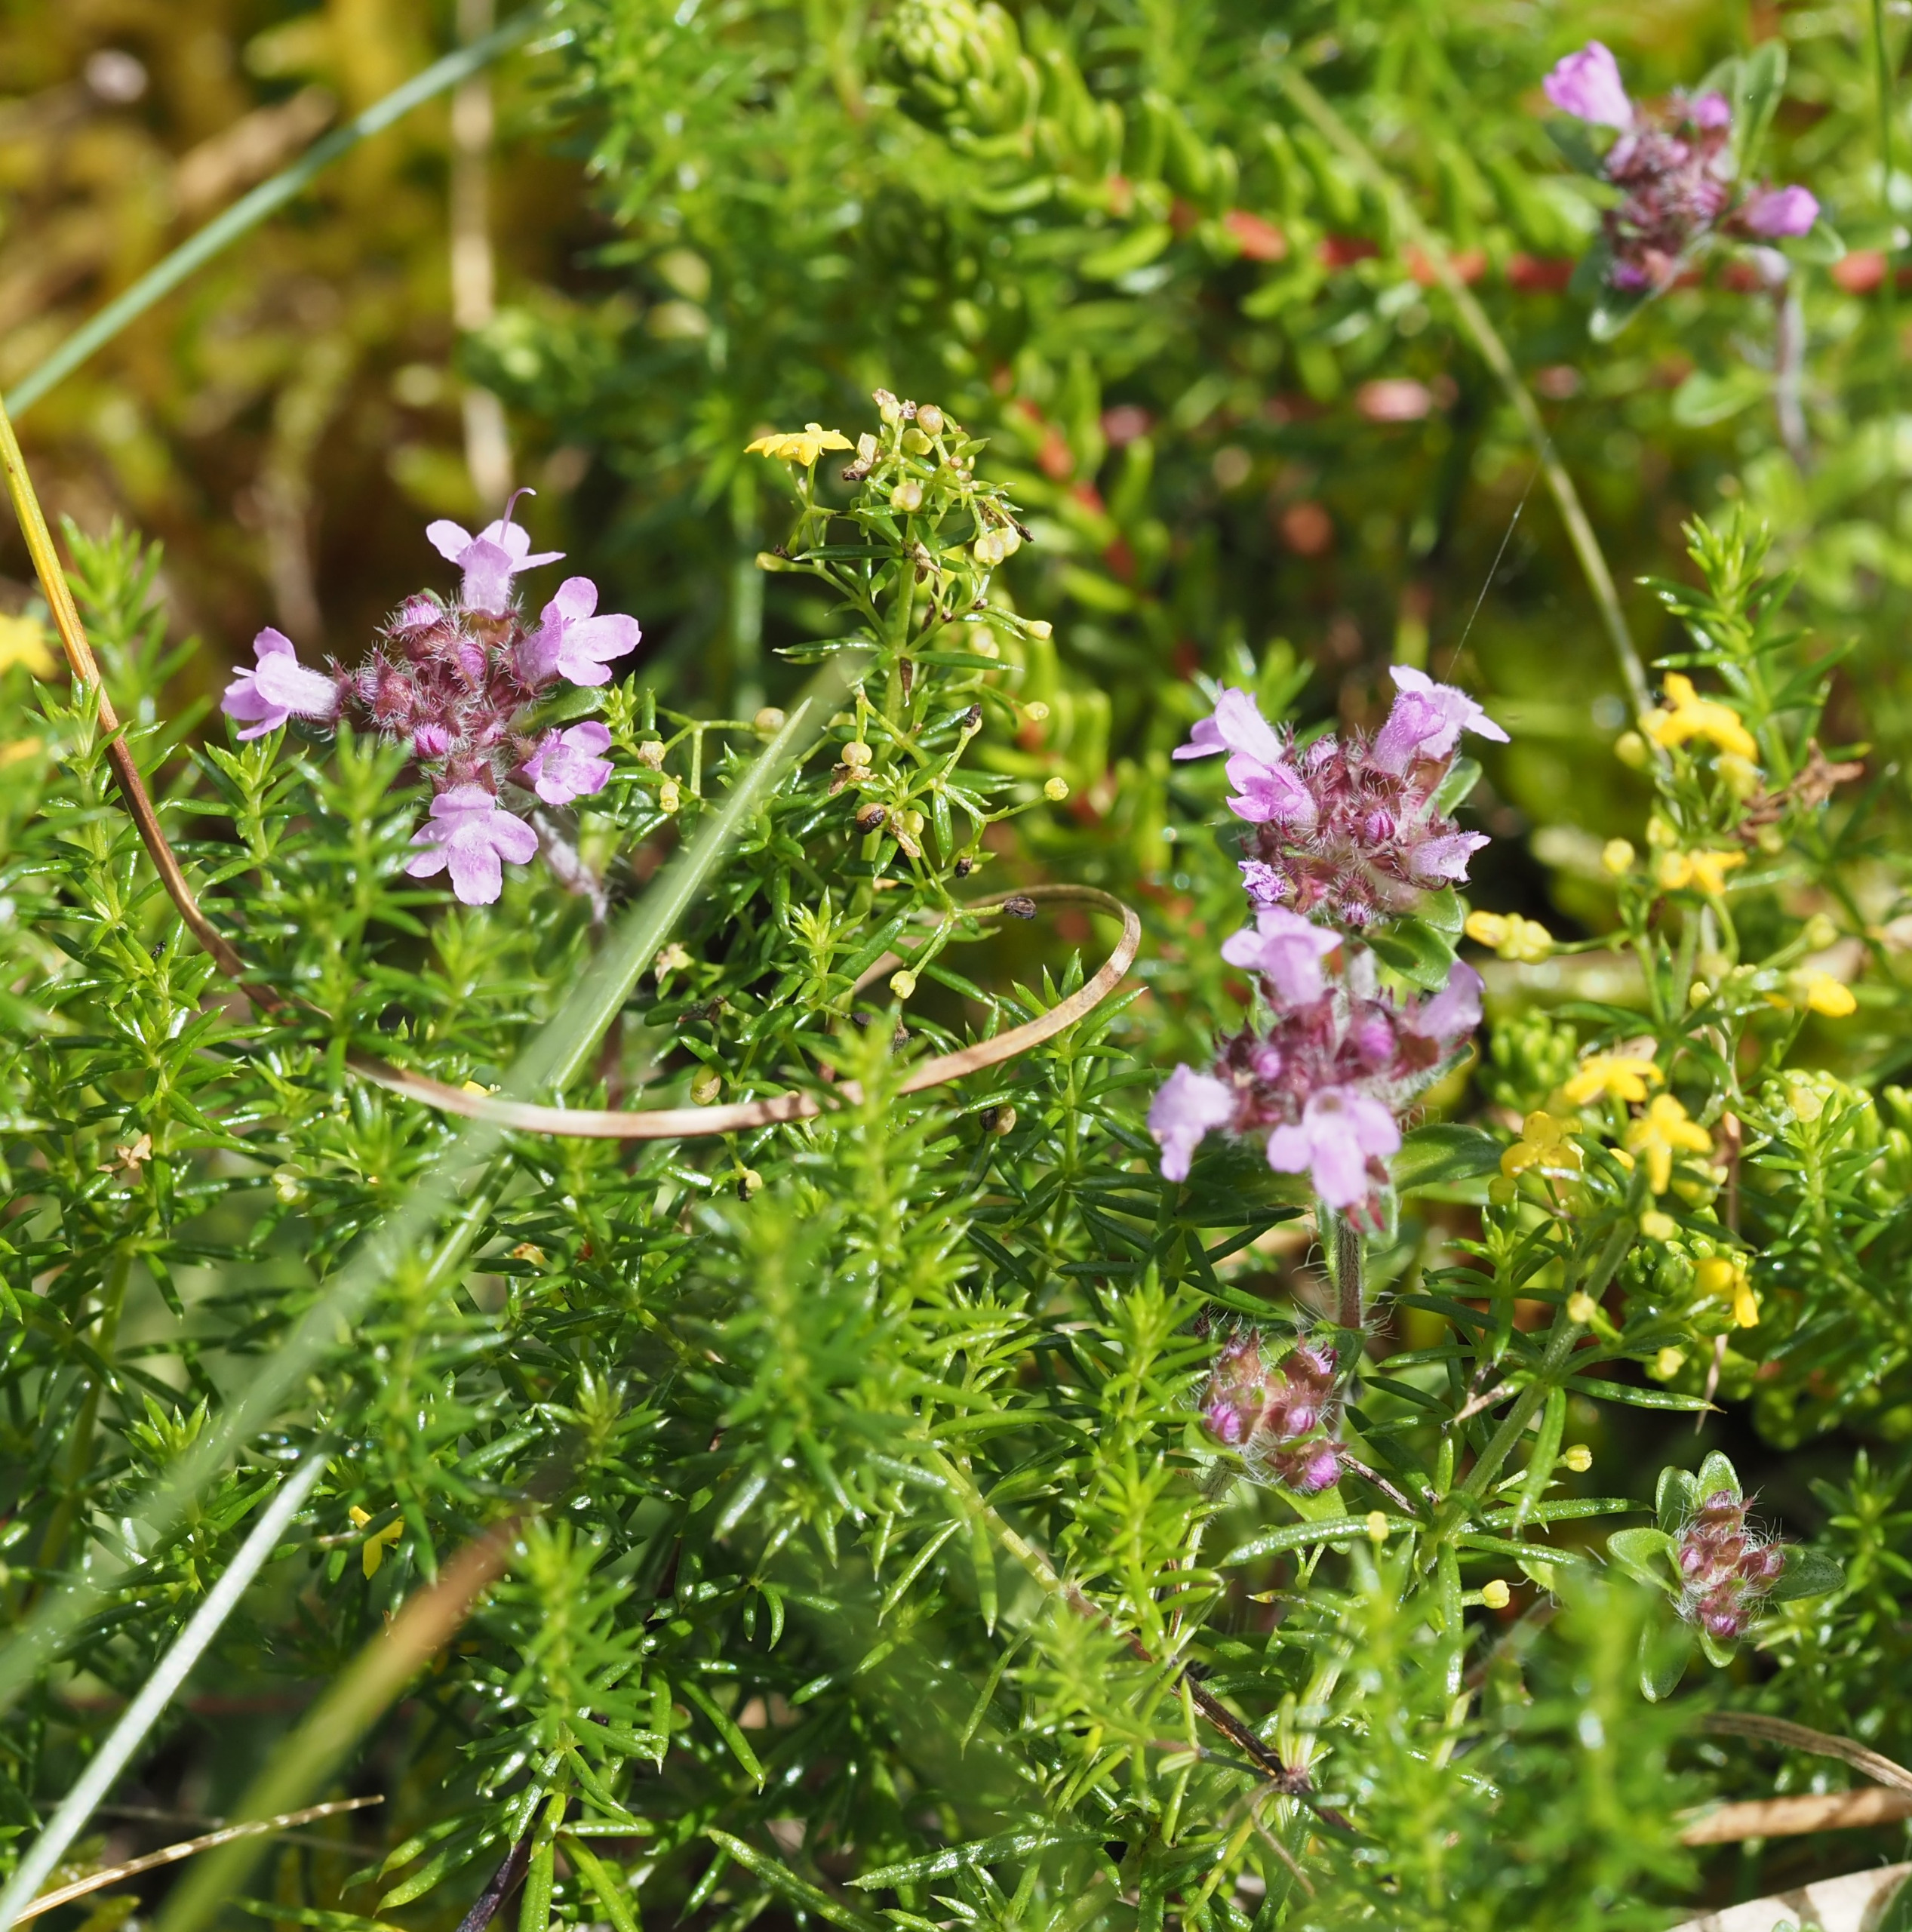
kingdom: Plantae
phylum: Tracheophyta
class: Magnoliopsida
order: Lamiales
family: Lamiaceae
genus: Thymus
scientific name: Thymus serpyllum
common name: Smalbladet timian
